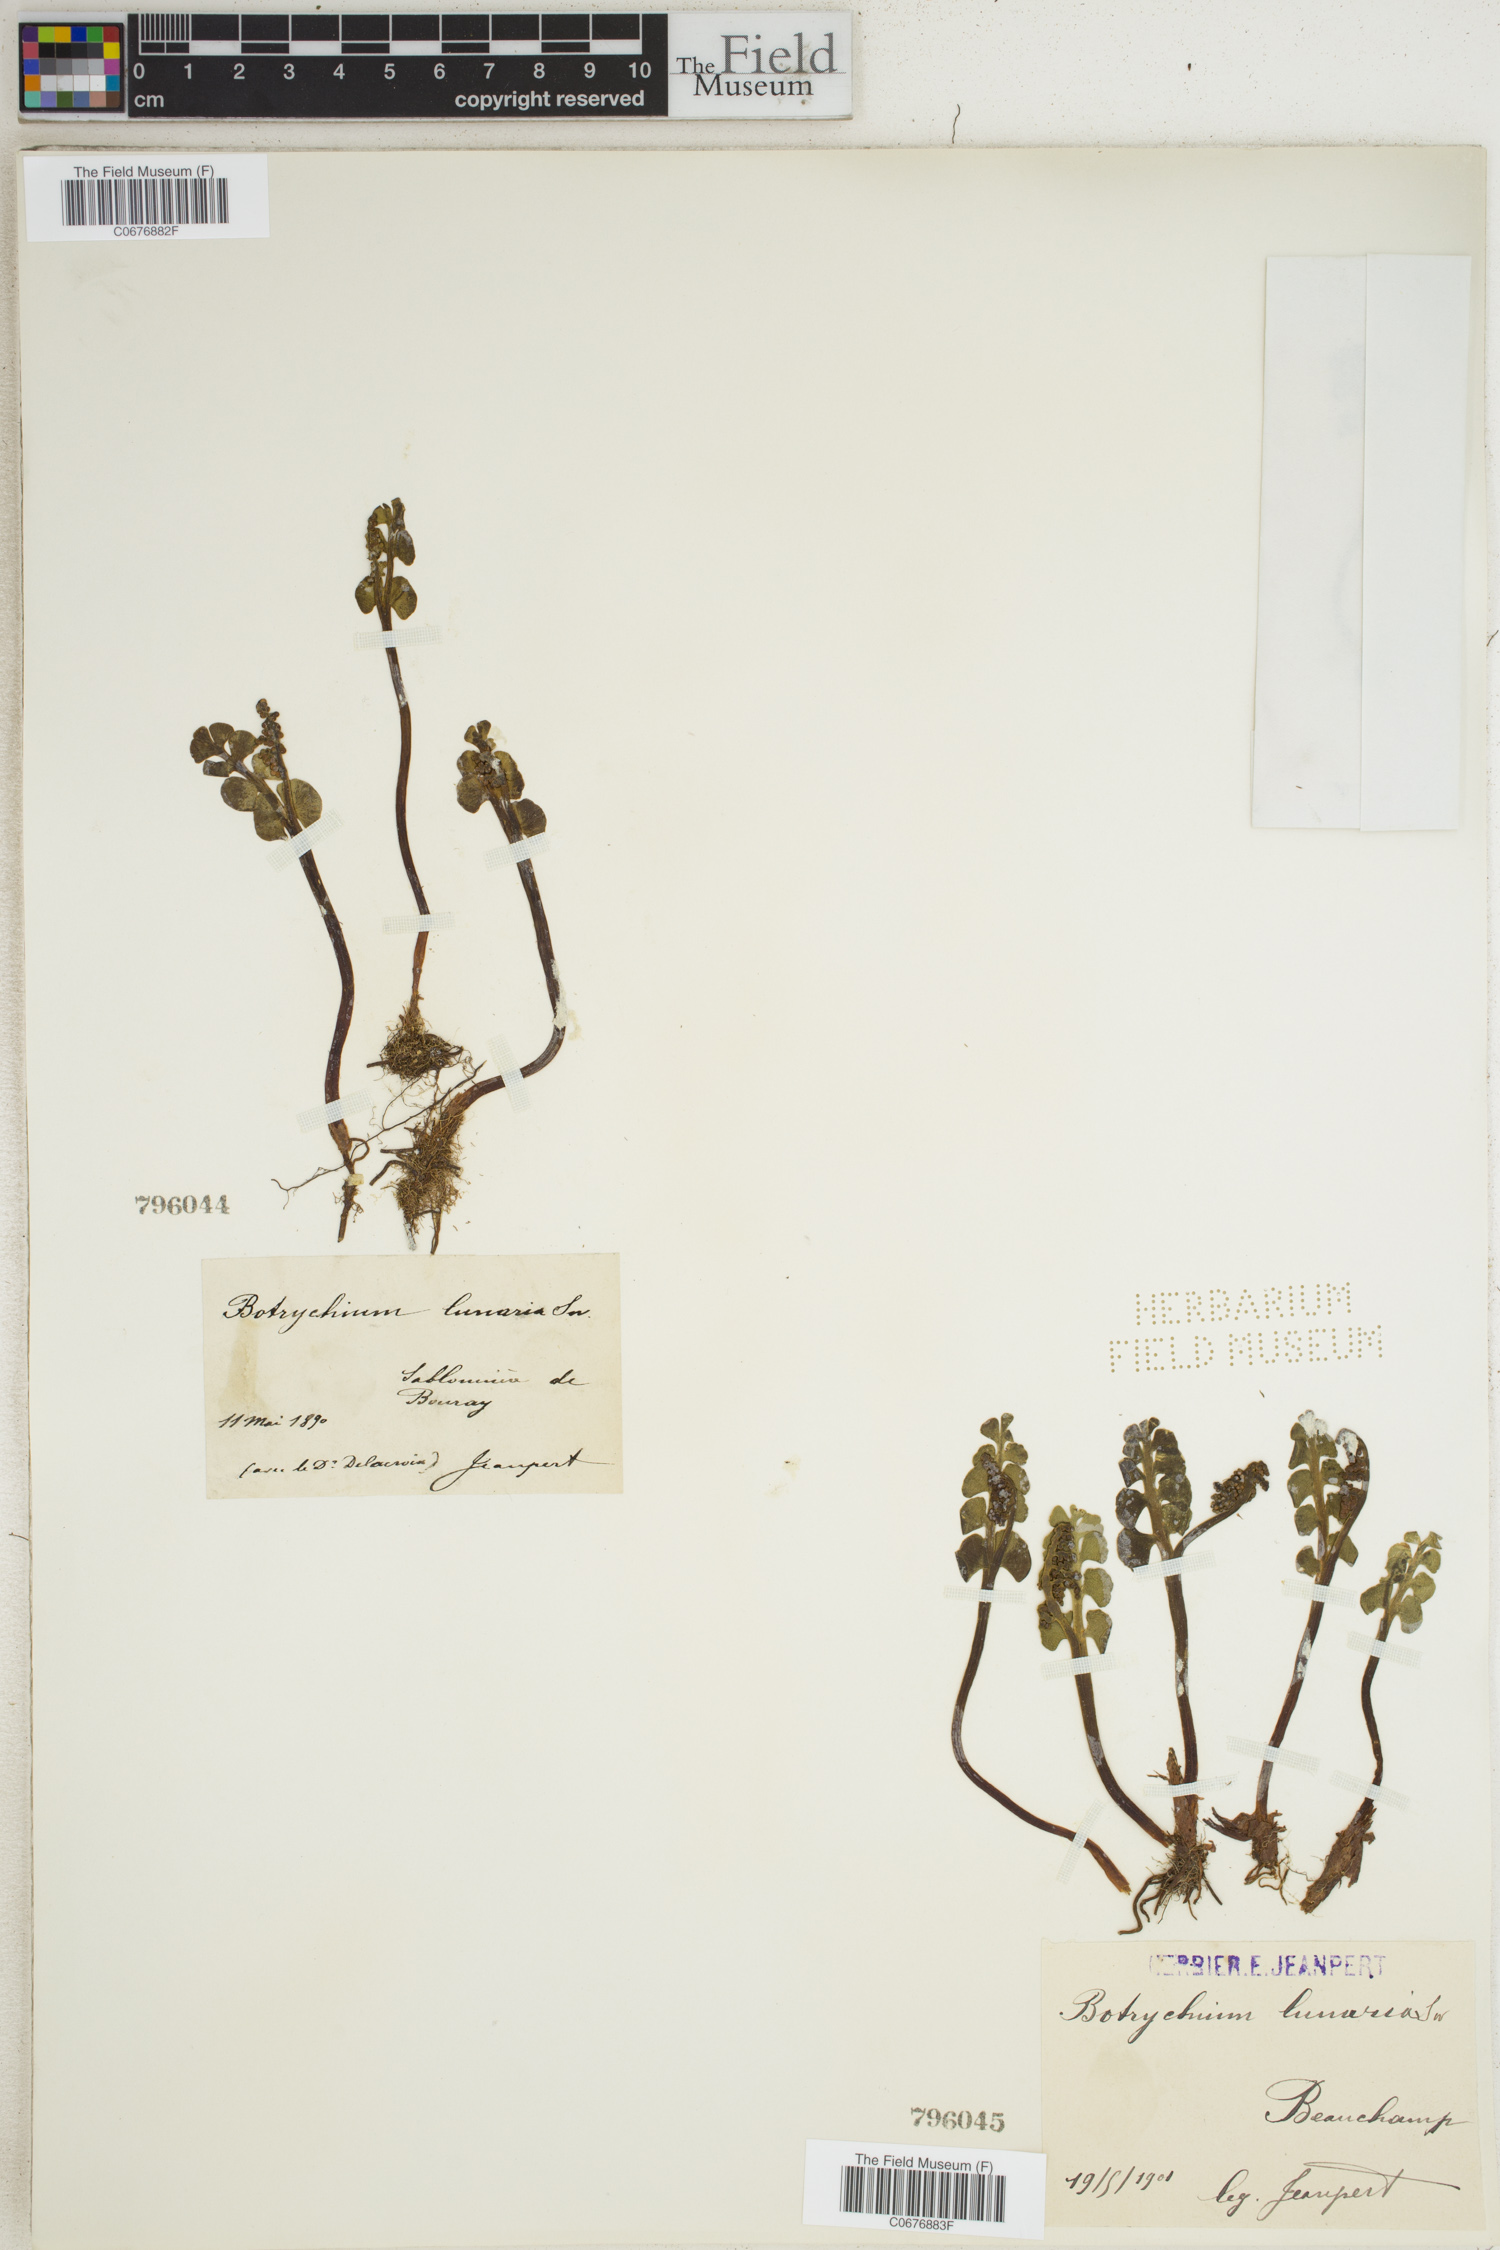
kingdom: Plantae
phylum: Tracheophyta
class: Polypodiopsida
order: Ophioglossales
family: Ophioglossaceae
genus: Botrychium
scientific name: Botrychium lunaria
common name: Moonwort
